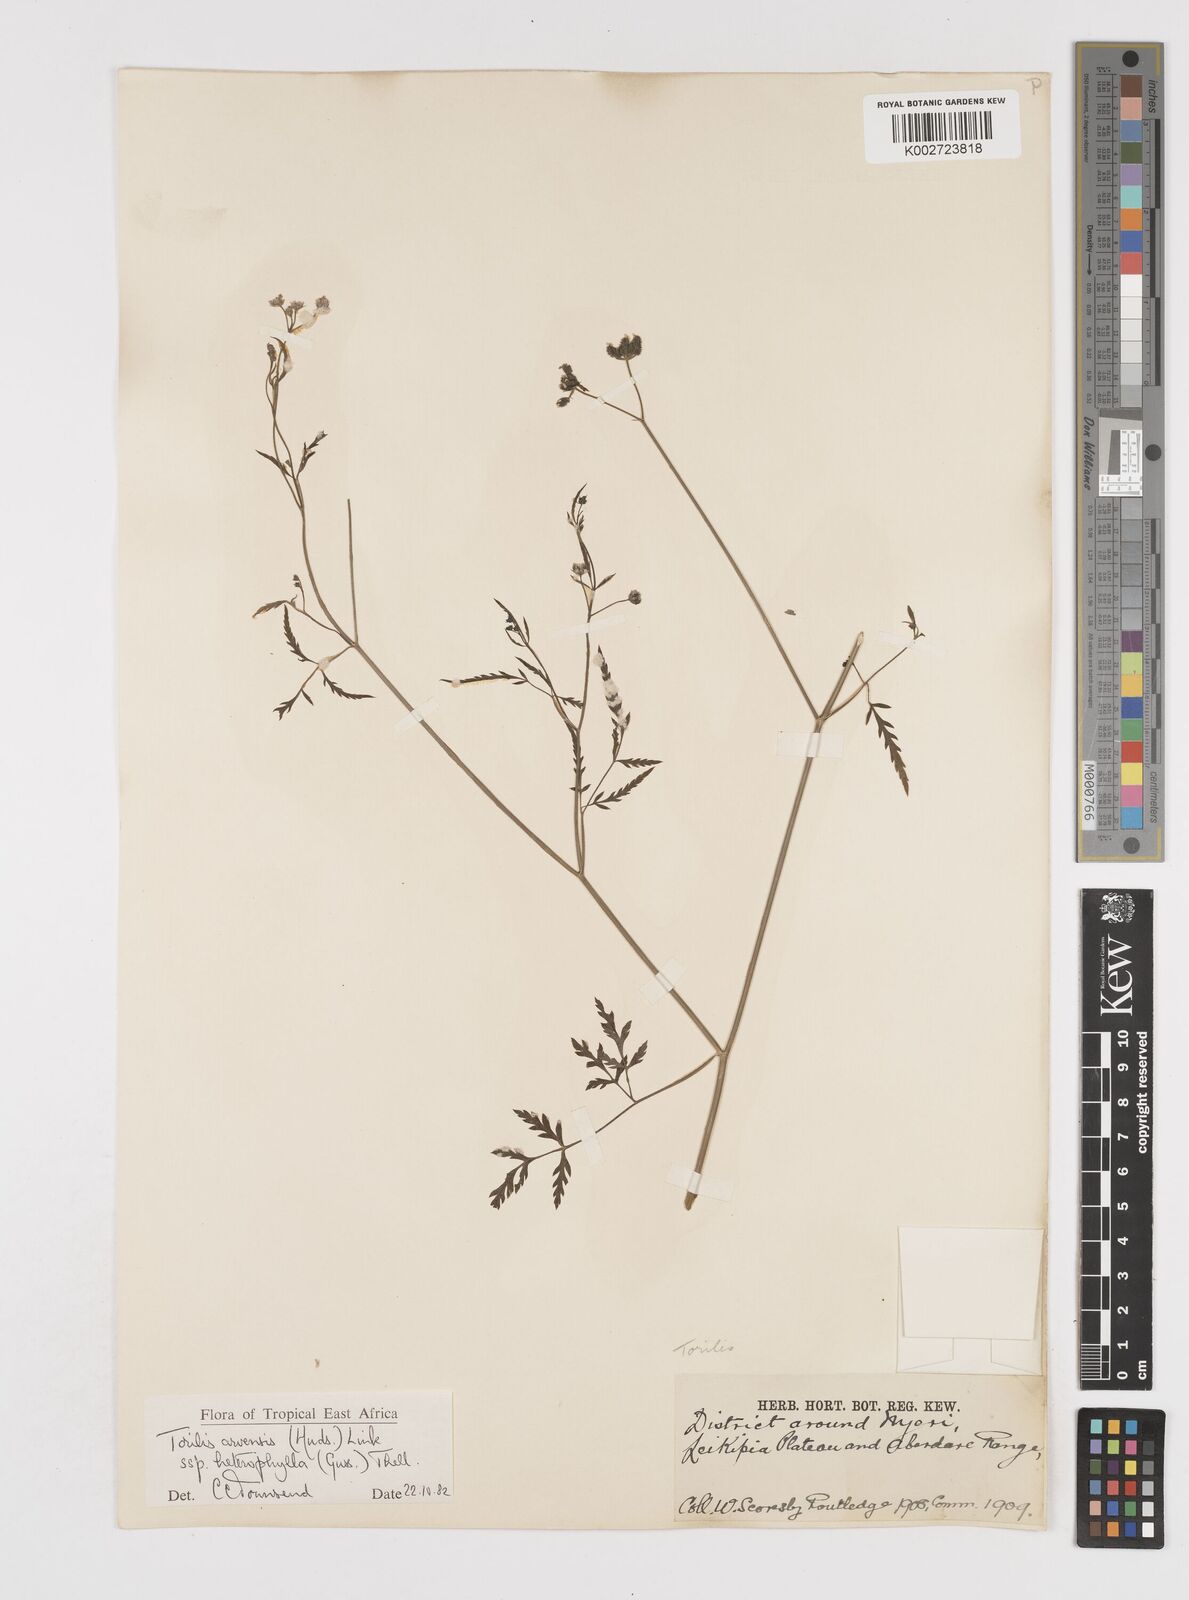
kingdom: Plantae
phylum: Tracheophyta
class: Magnoliopsida
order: Apiales
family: Apiaceae
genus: Torilis
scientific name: Torilis arvensis
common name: Spreading hedge-parsley
